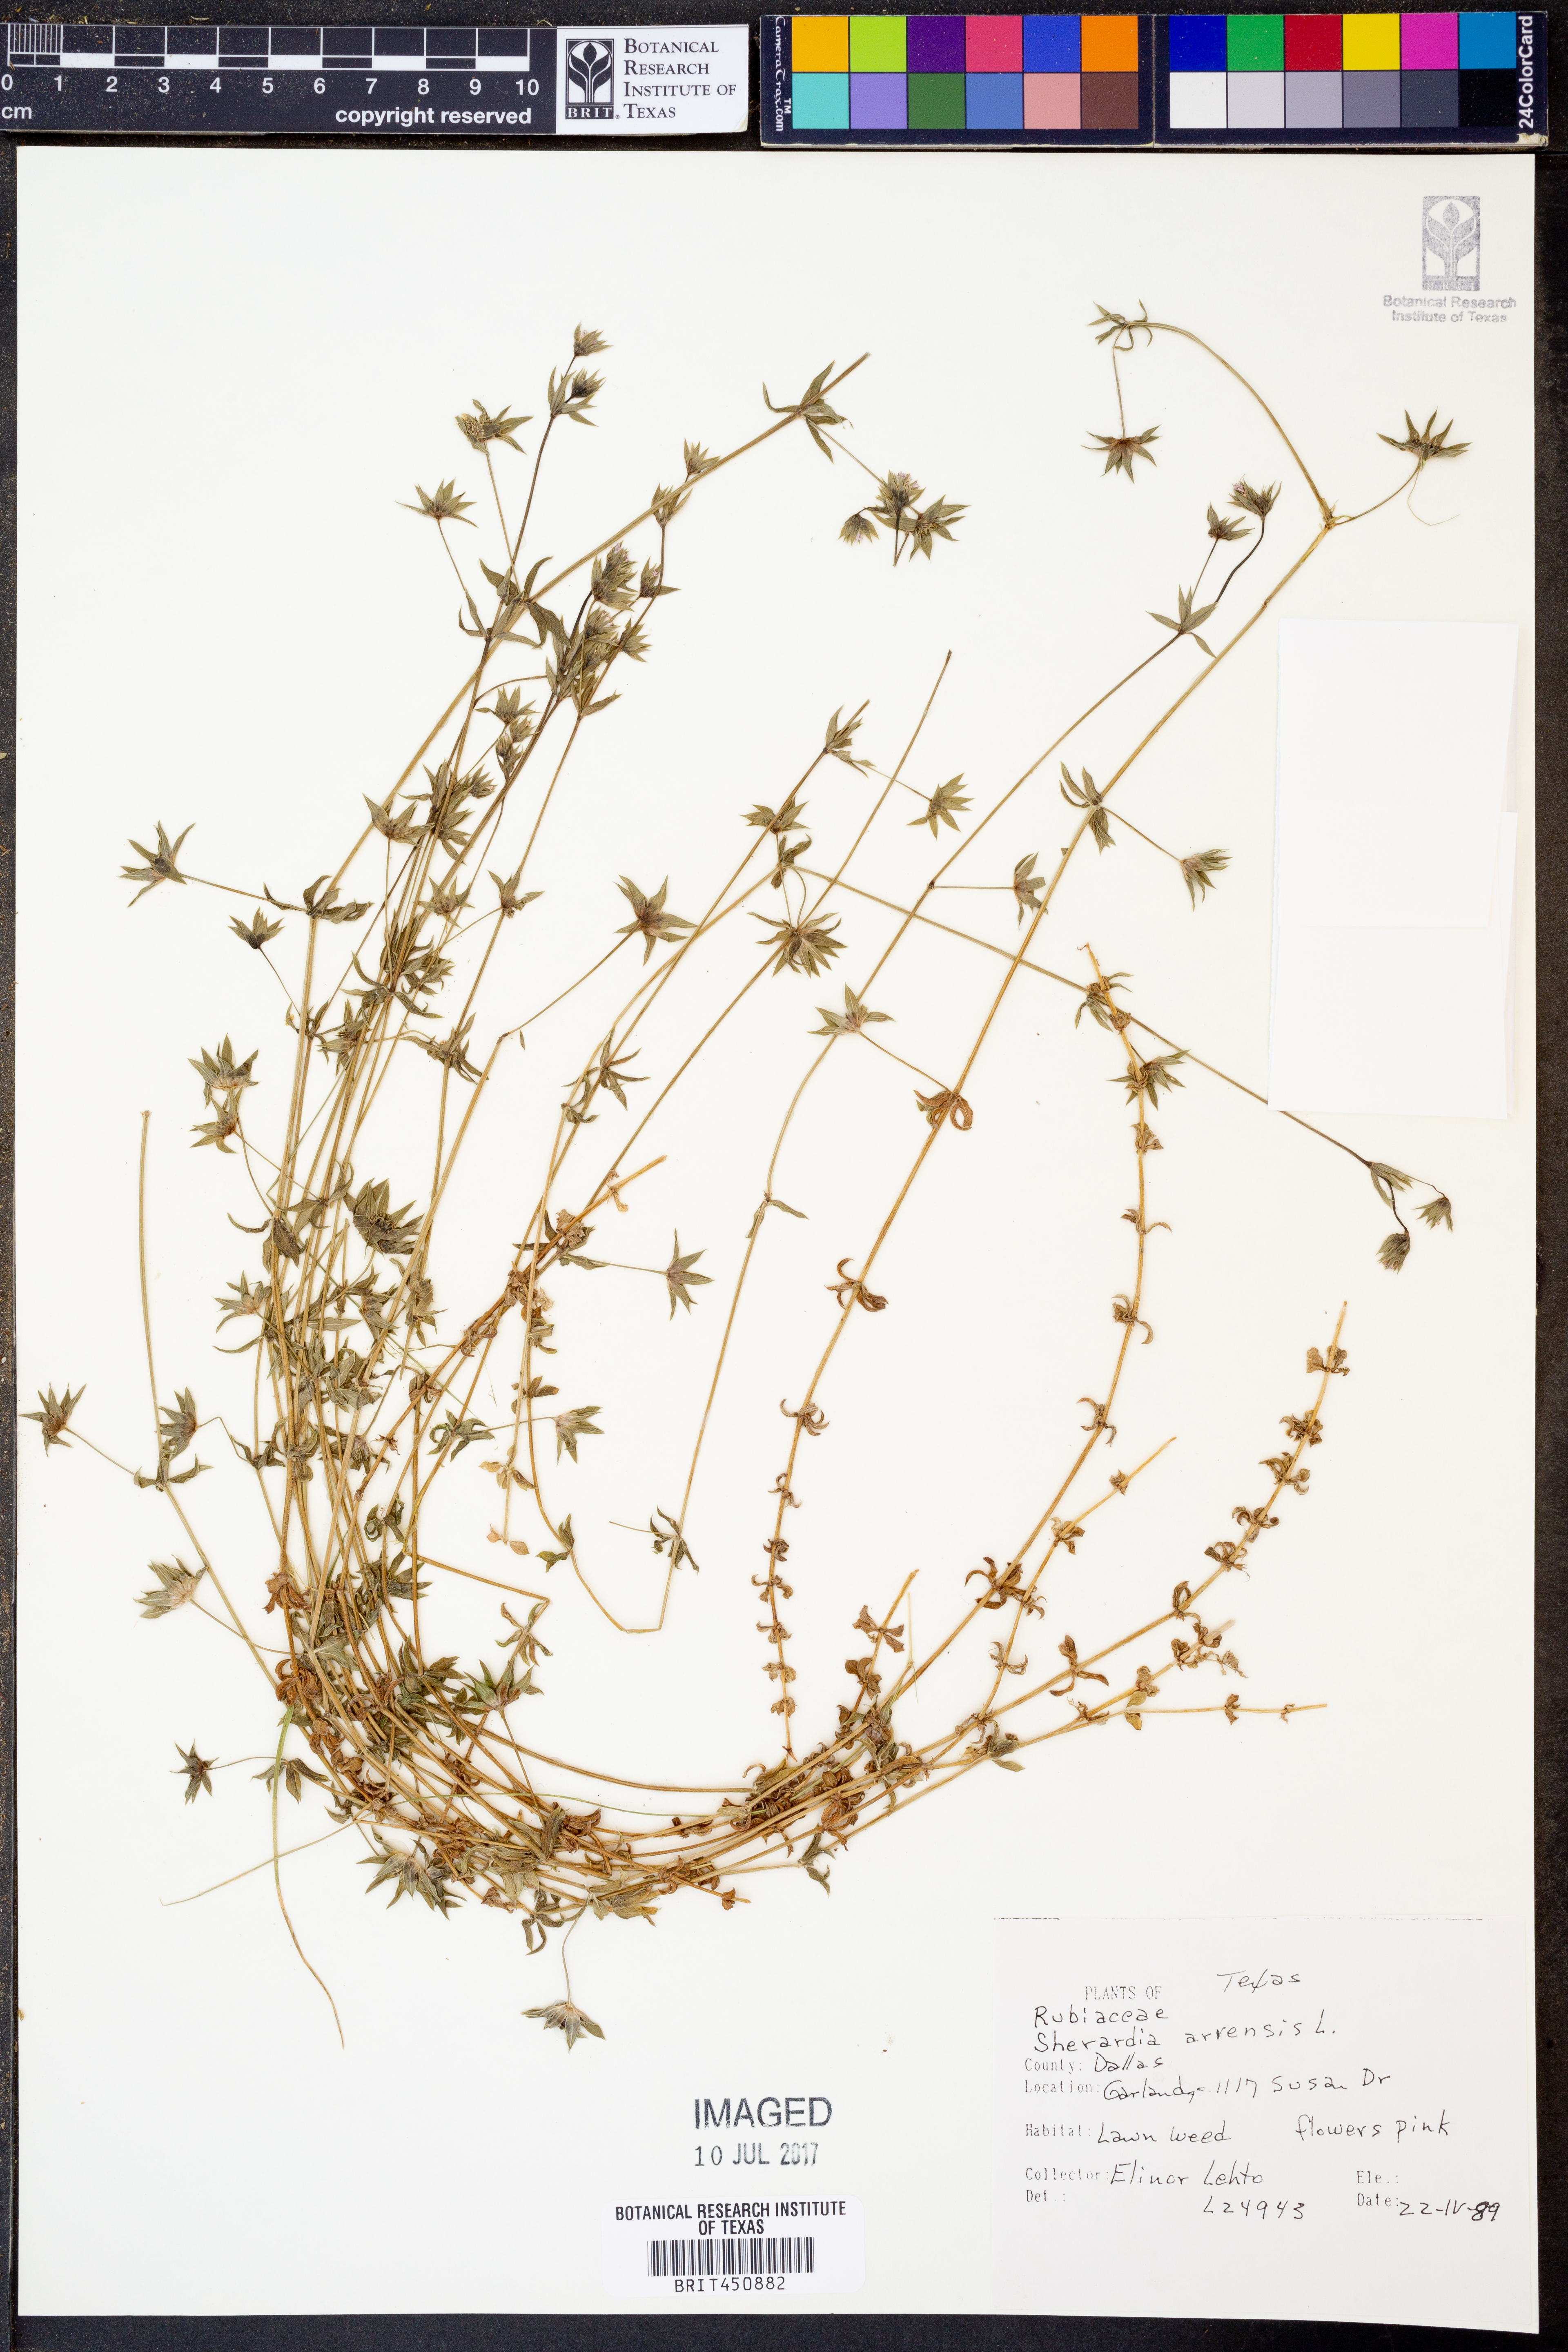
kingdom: Plantae
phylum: Tracheophyta
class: Magnoliopsida
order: Gentianales
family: Rubiaceae
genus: Sherardia
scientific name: Sherardia arvensis
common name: Field madder
